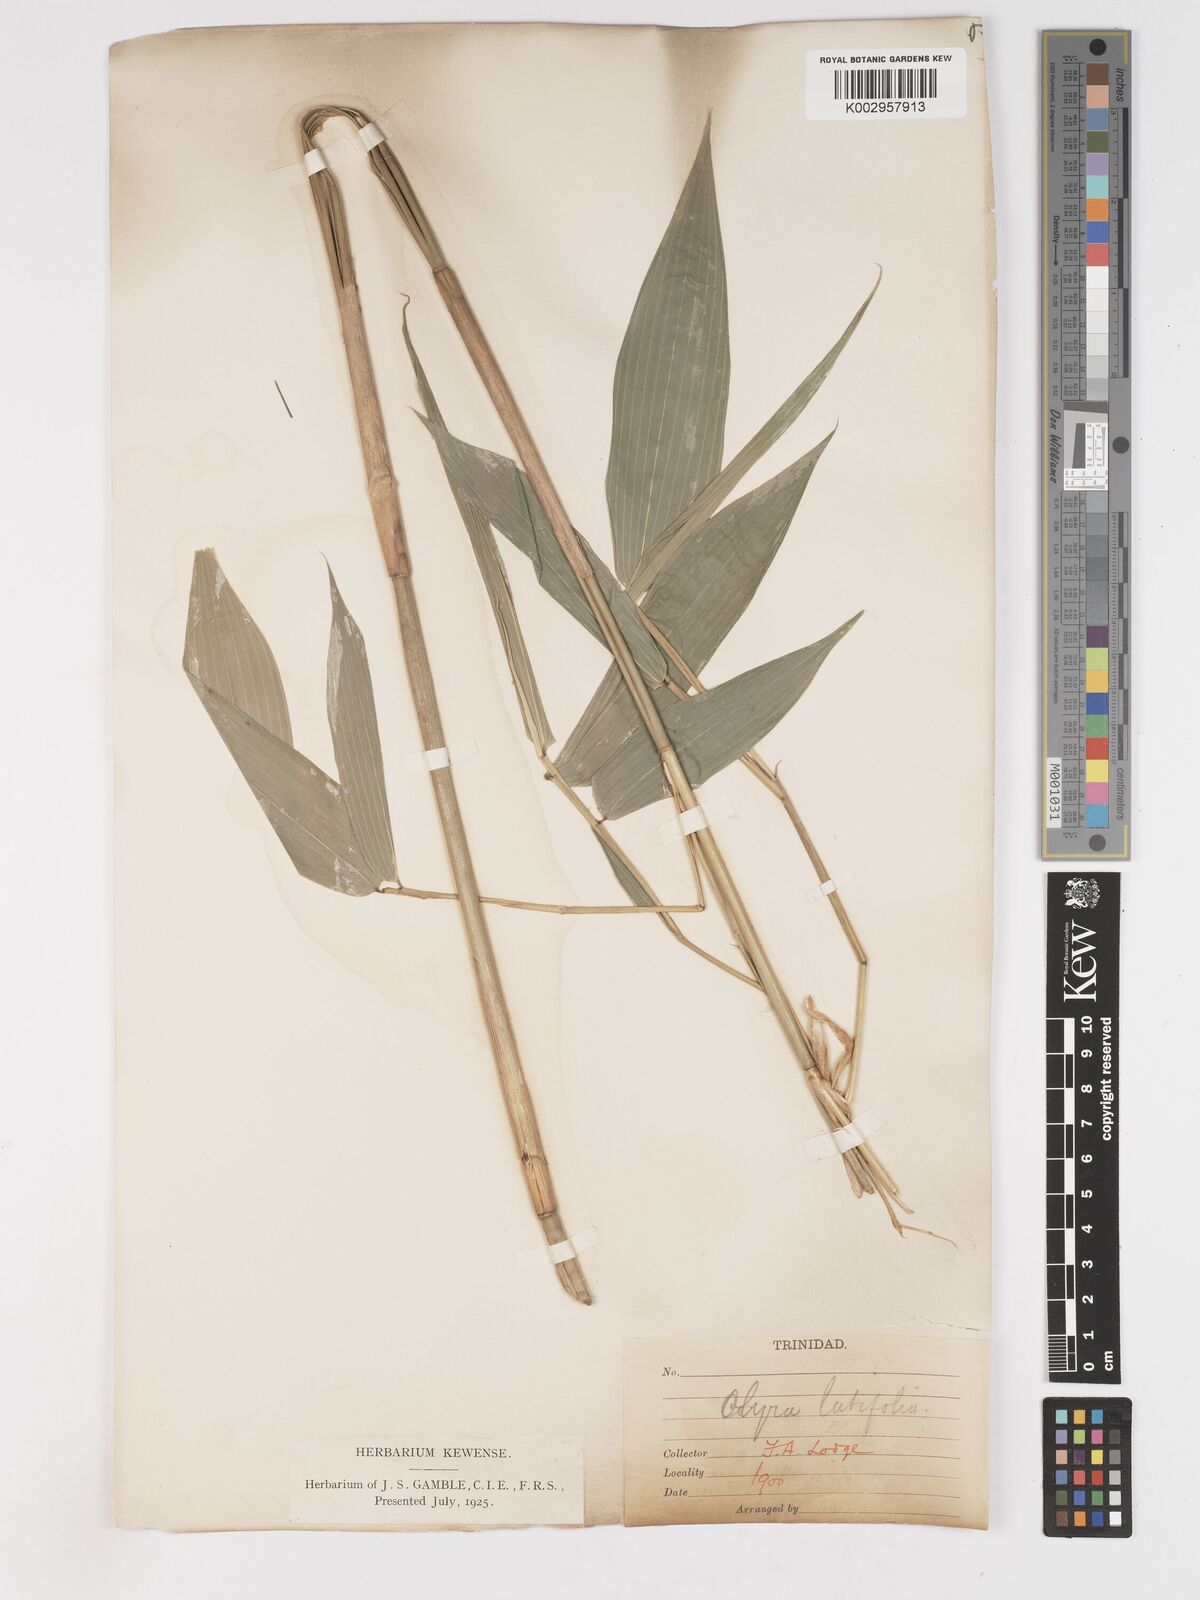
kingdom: Plantae
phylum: Tracheophyta
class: Liliopsida
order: Poales
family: Poaceae
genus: Olyra
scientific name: Olyra latifolia
